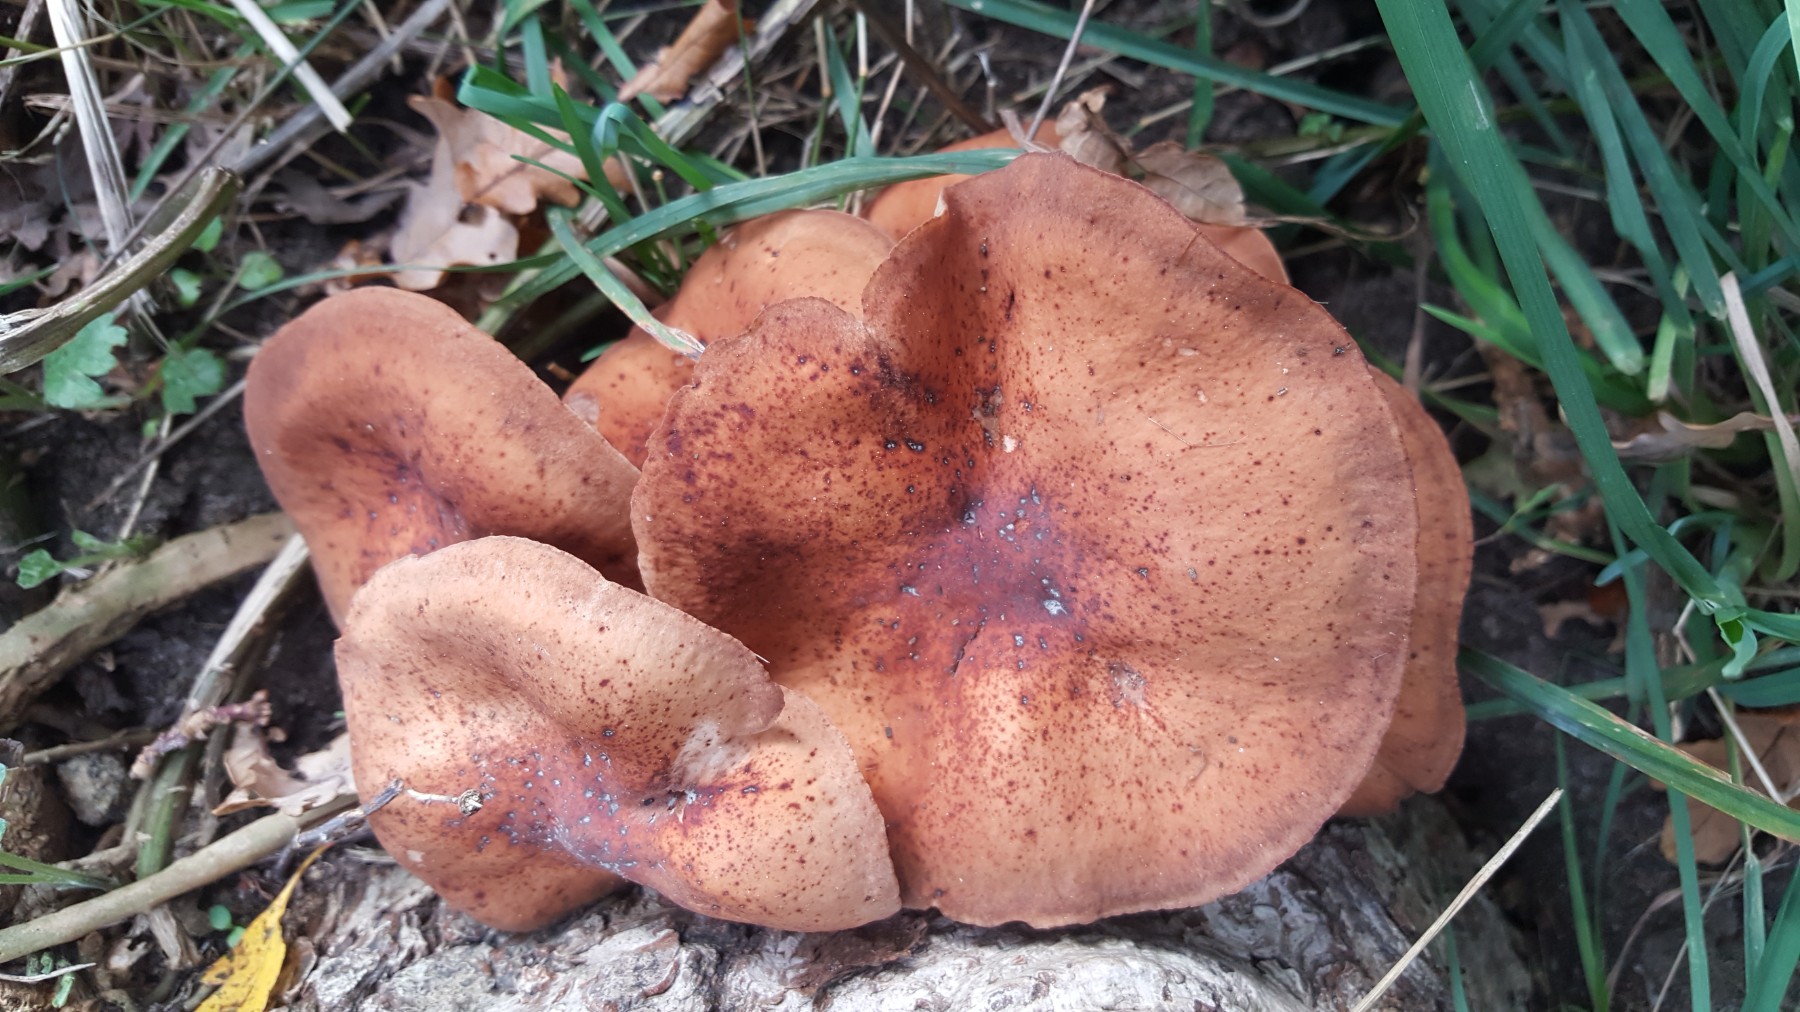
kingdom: Fungi
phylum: Basidiomycota
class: Agaricomycetes
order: Agaricales
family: Omphalotaceae
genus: Gymnopus
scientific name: Gymnopus fusipes
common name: tenstokket fladhat
